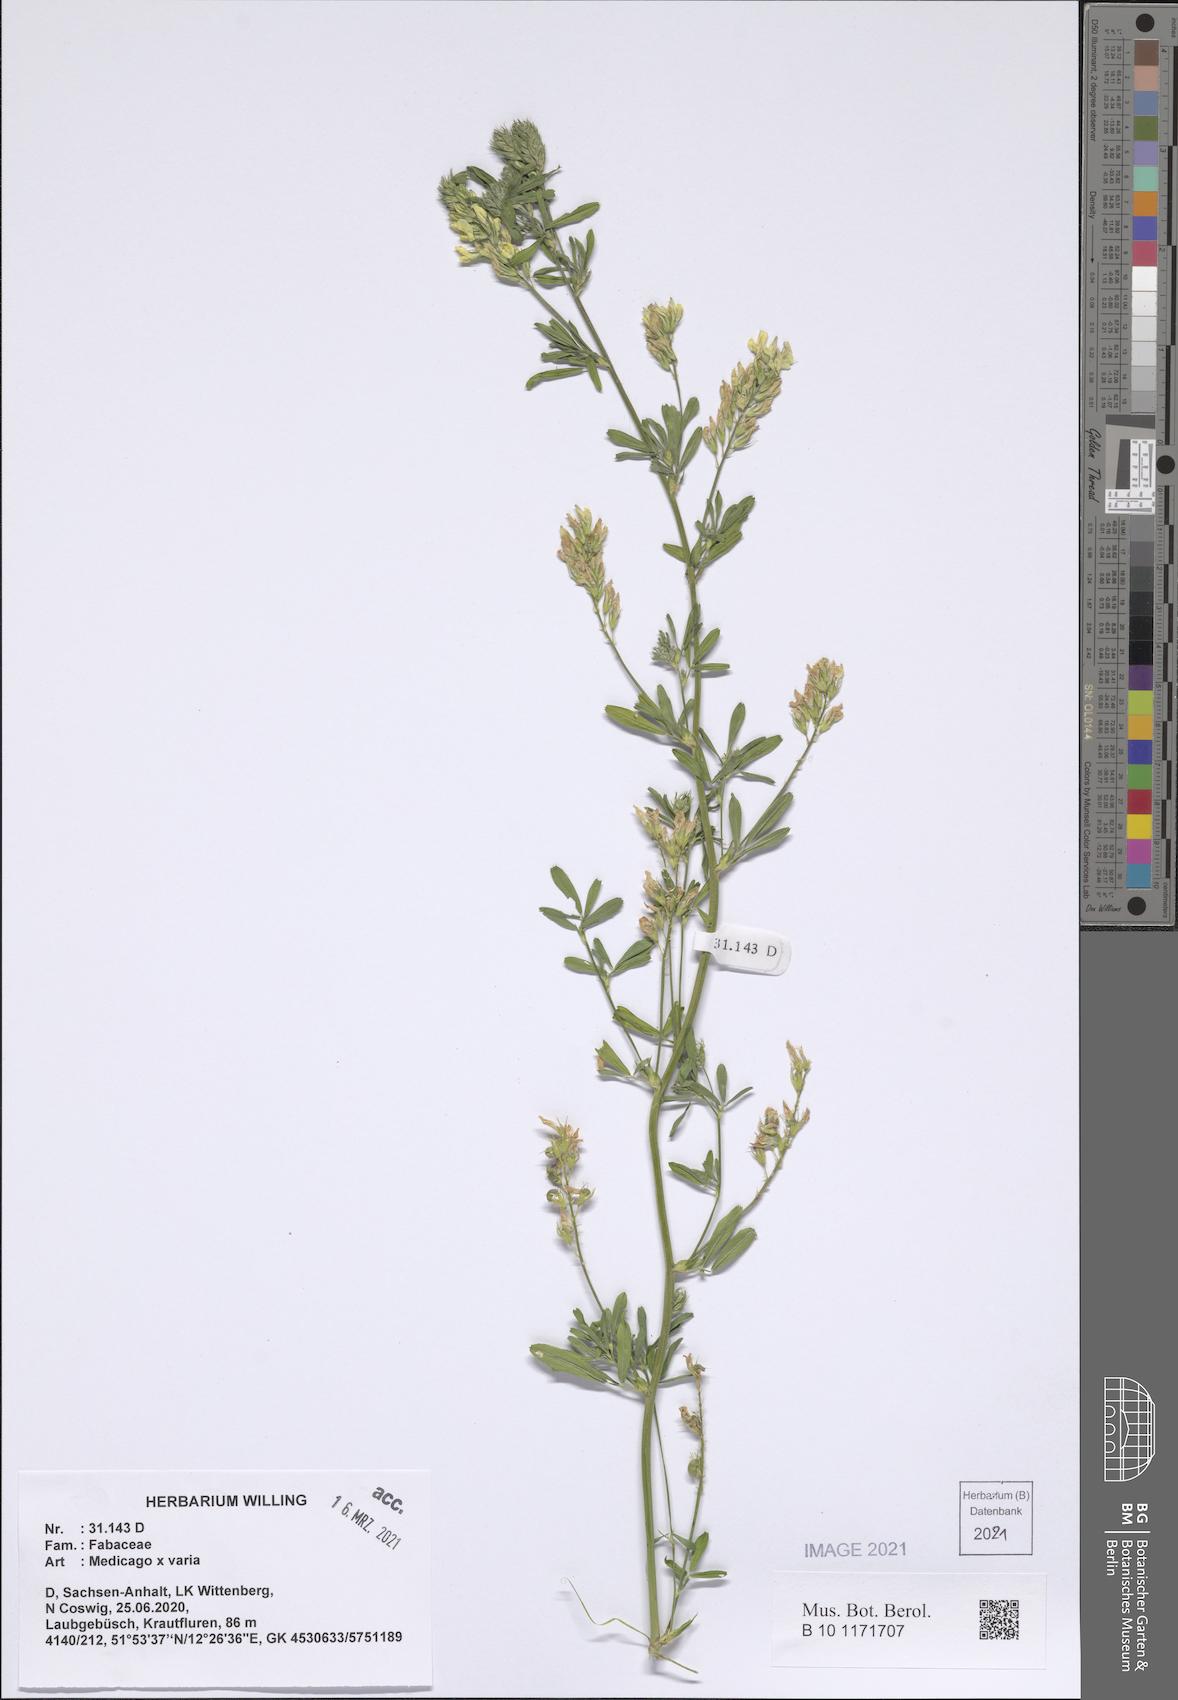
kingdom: Plantae
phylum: Tracheophyta
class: Magnoliopsida
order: Fabales
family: Fabaceae
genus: Medicago
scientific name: Medicago varia
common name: Sand lucerne
